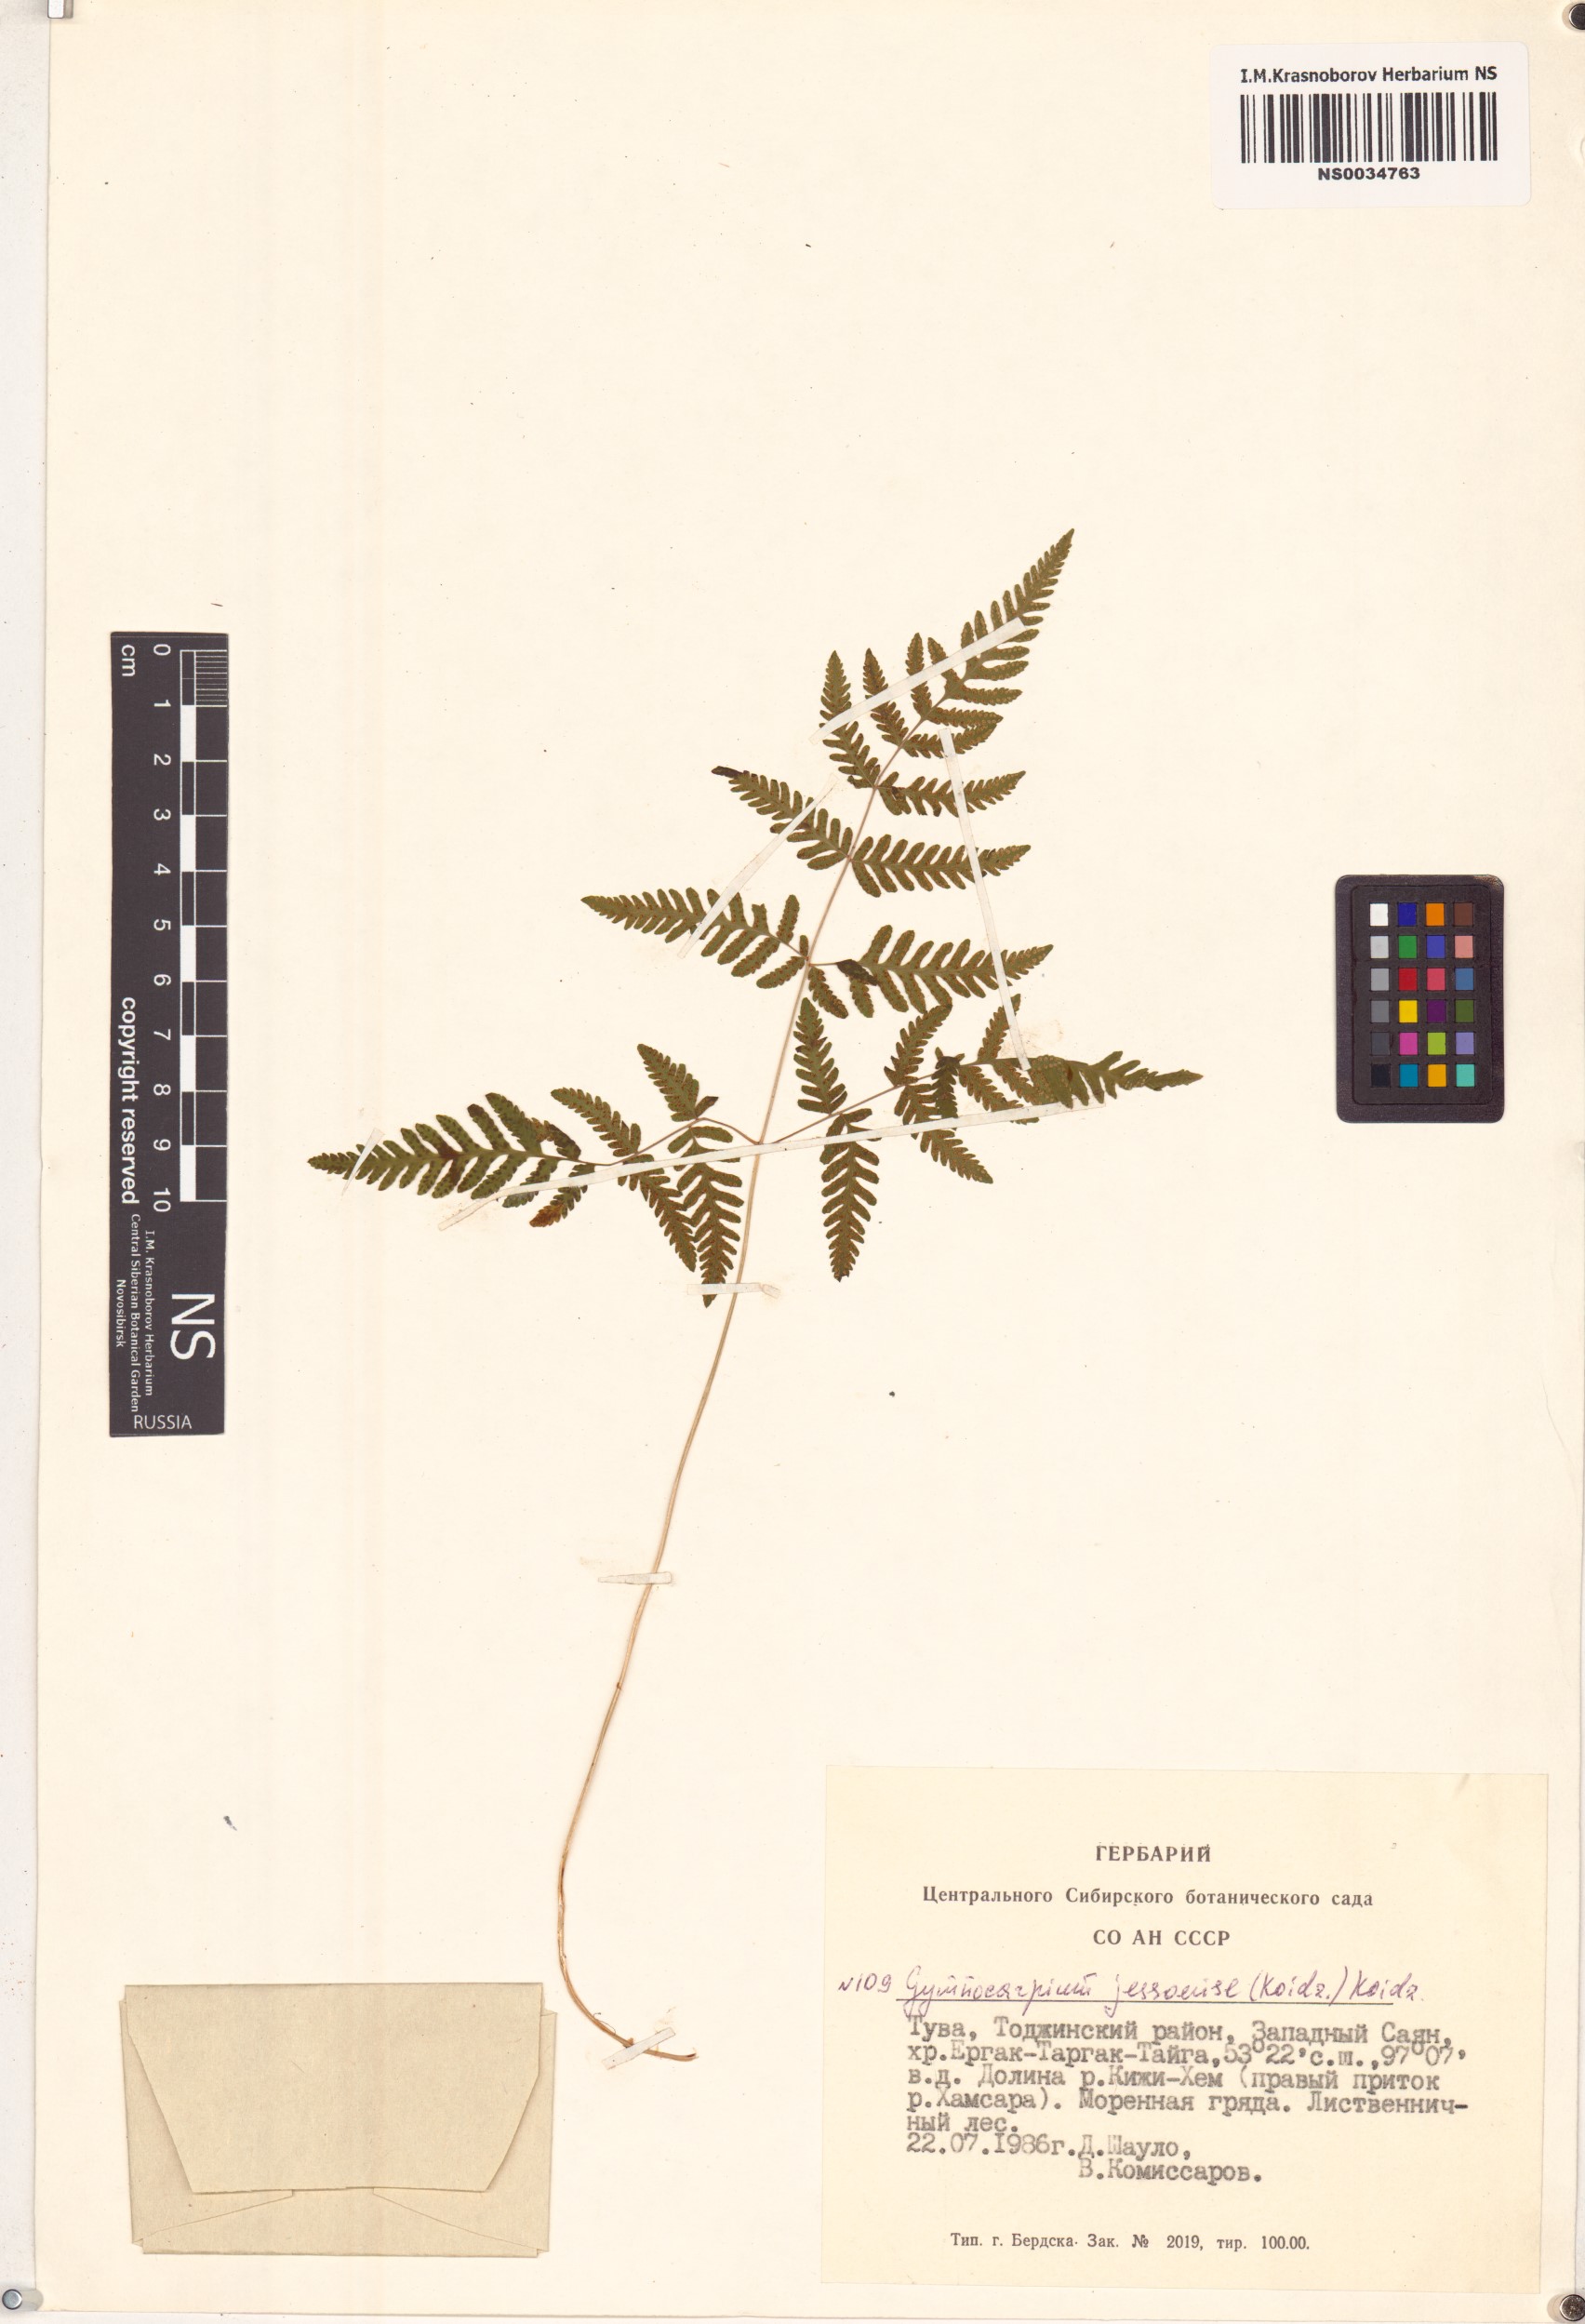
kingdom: Plantae
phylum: Tracheophyta
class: Polypodiopsida
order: Polypodiales
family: Cystopteridaceae
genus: Gymnocarpium
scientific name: Gymnocarpium jessoense
